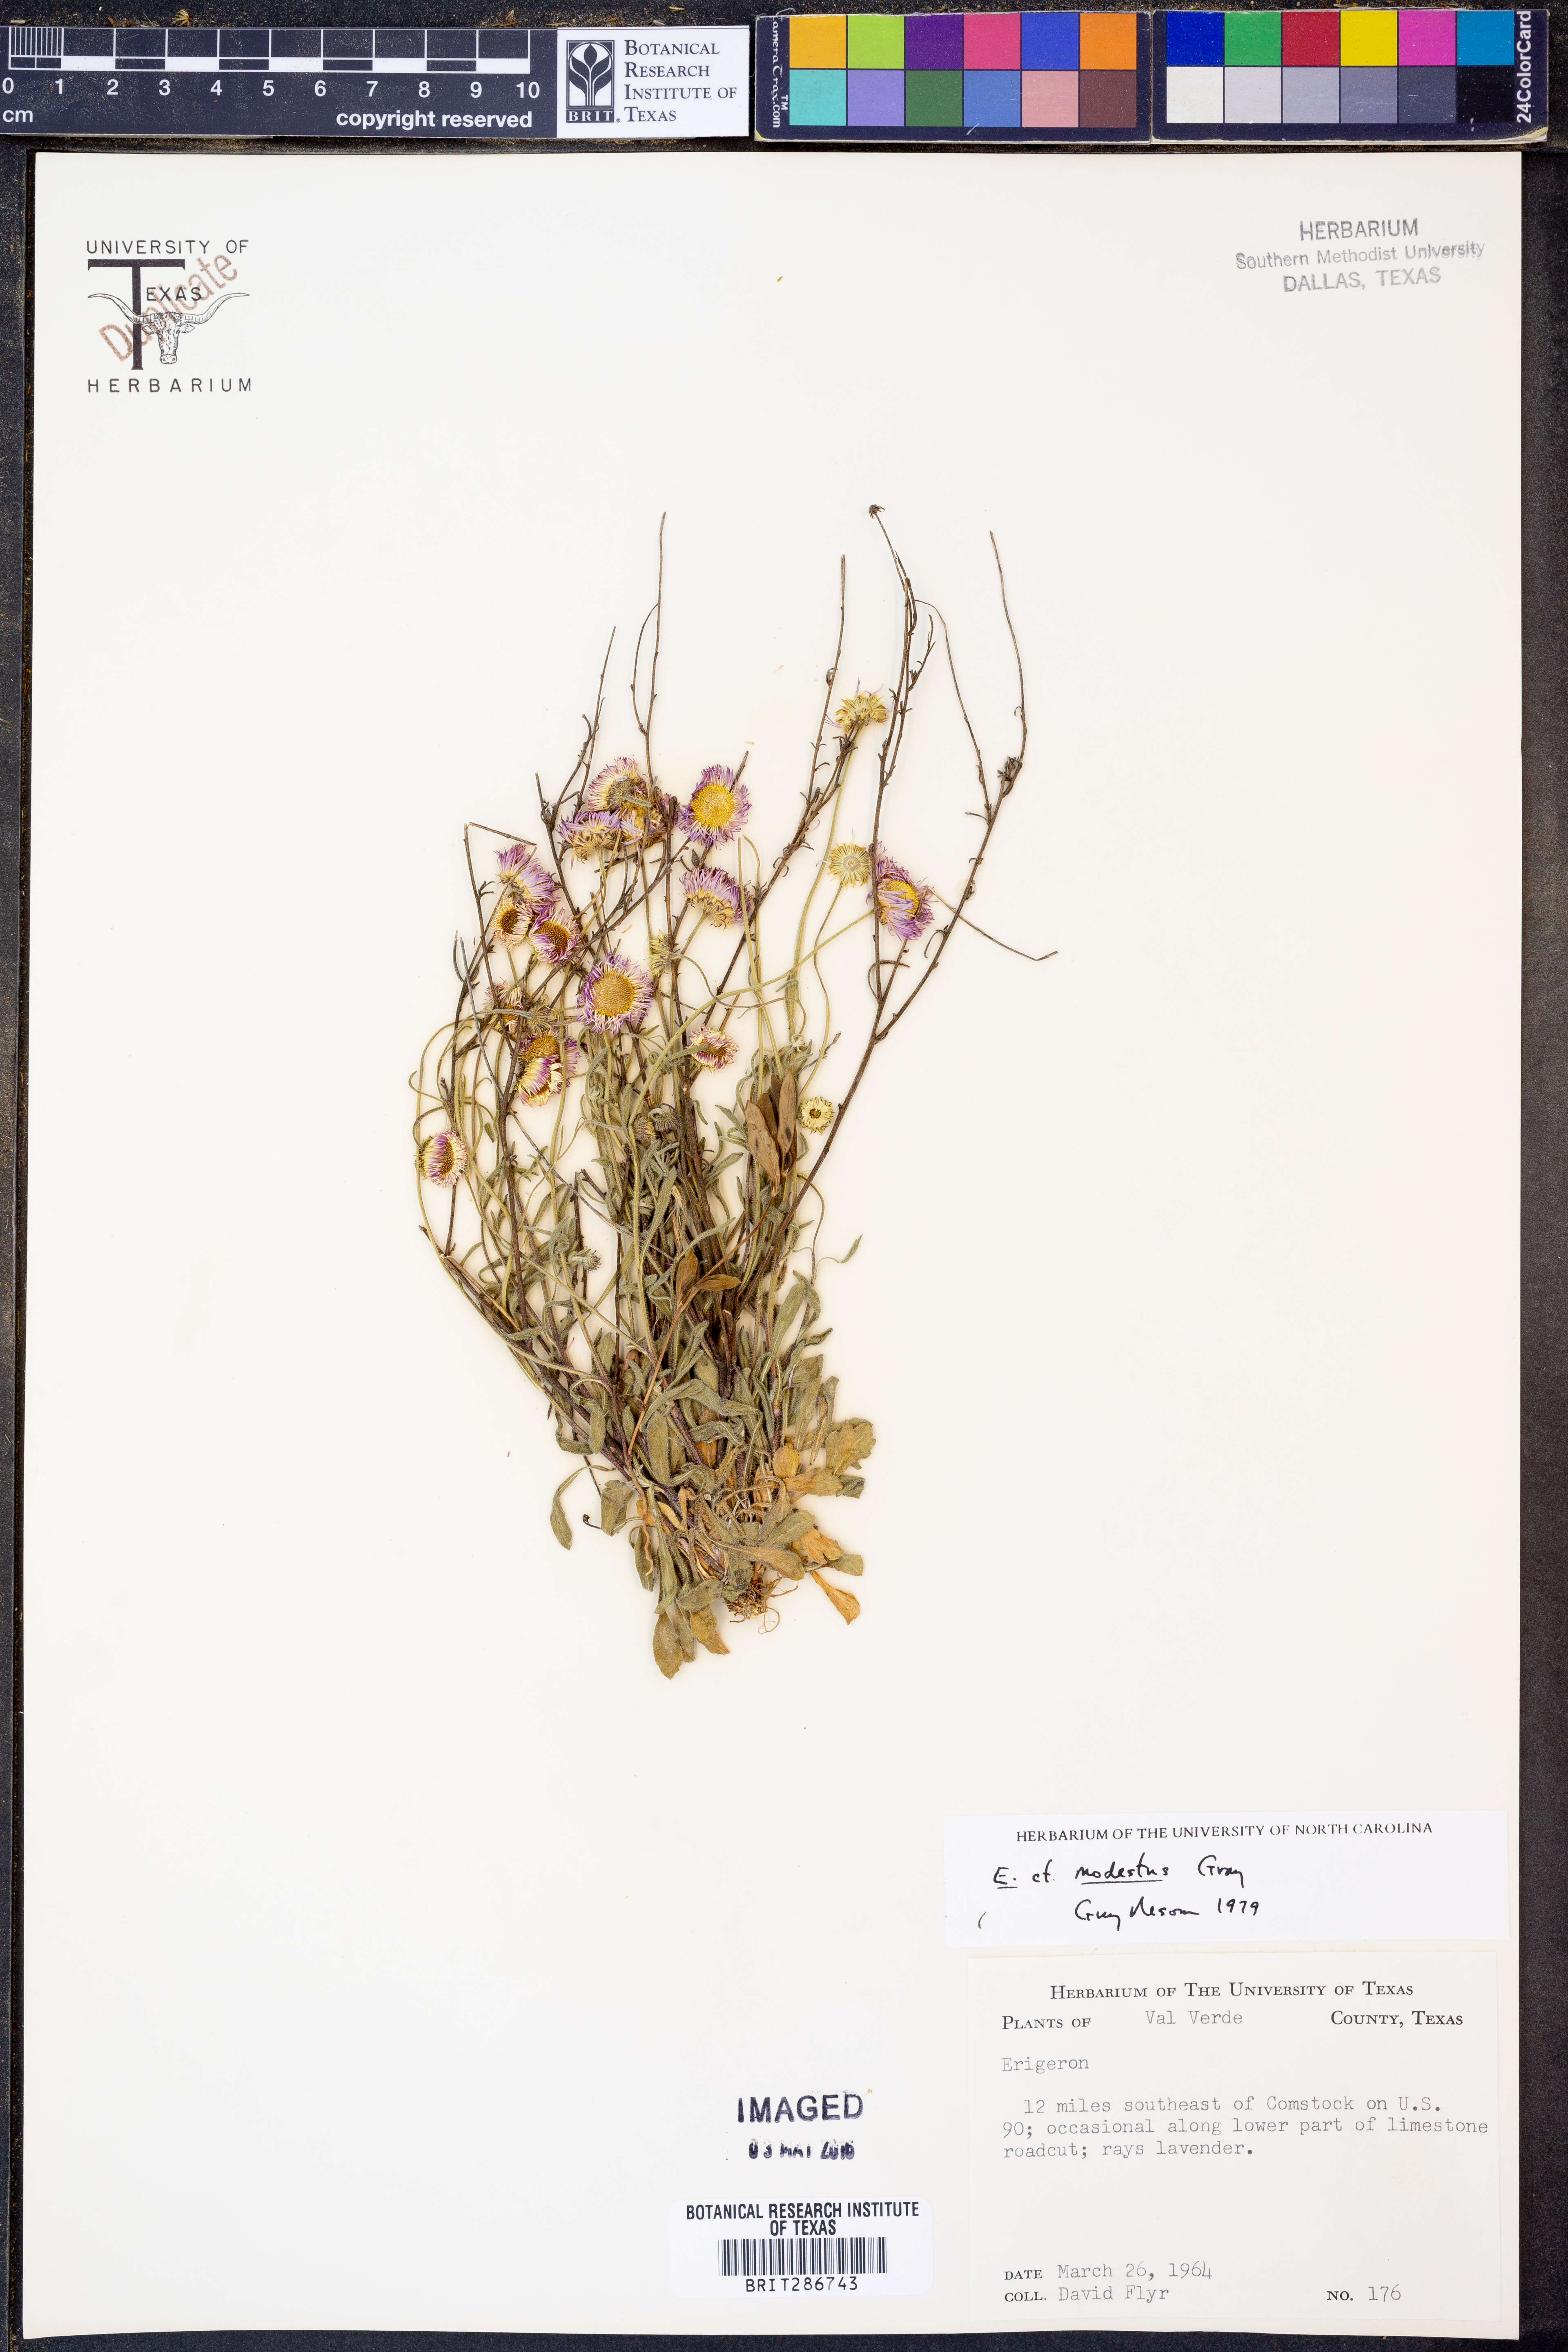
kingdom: Plantae
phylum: Tracheophyta
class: Magnoliopsida
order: Asterales
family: Asteraceae
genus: Erigeron
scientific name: Erigeron modestus
